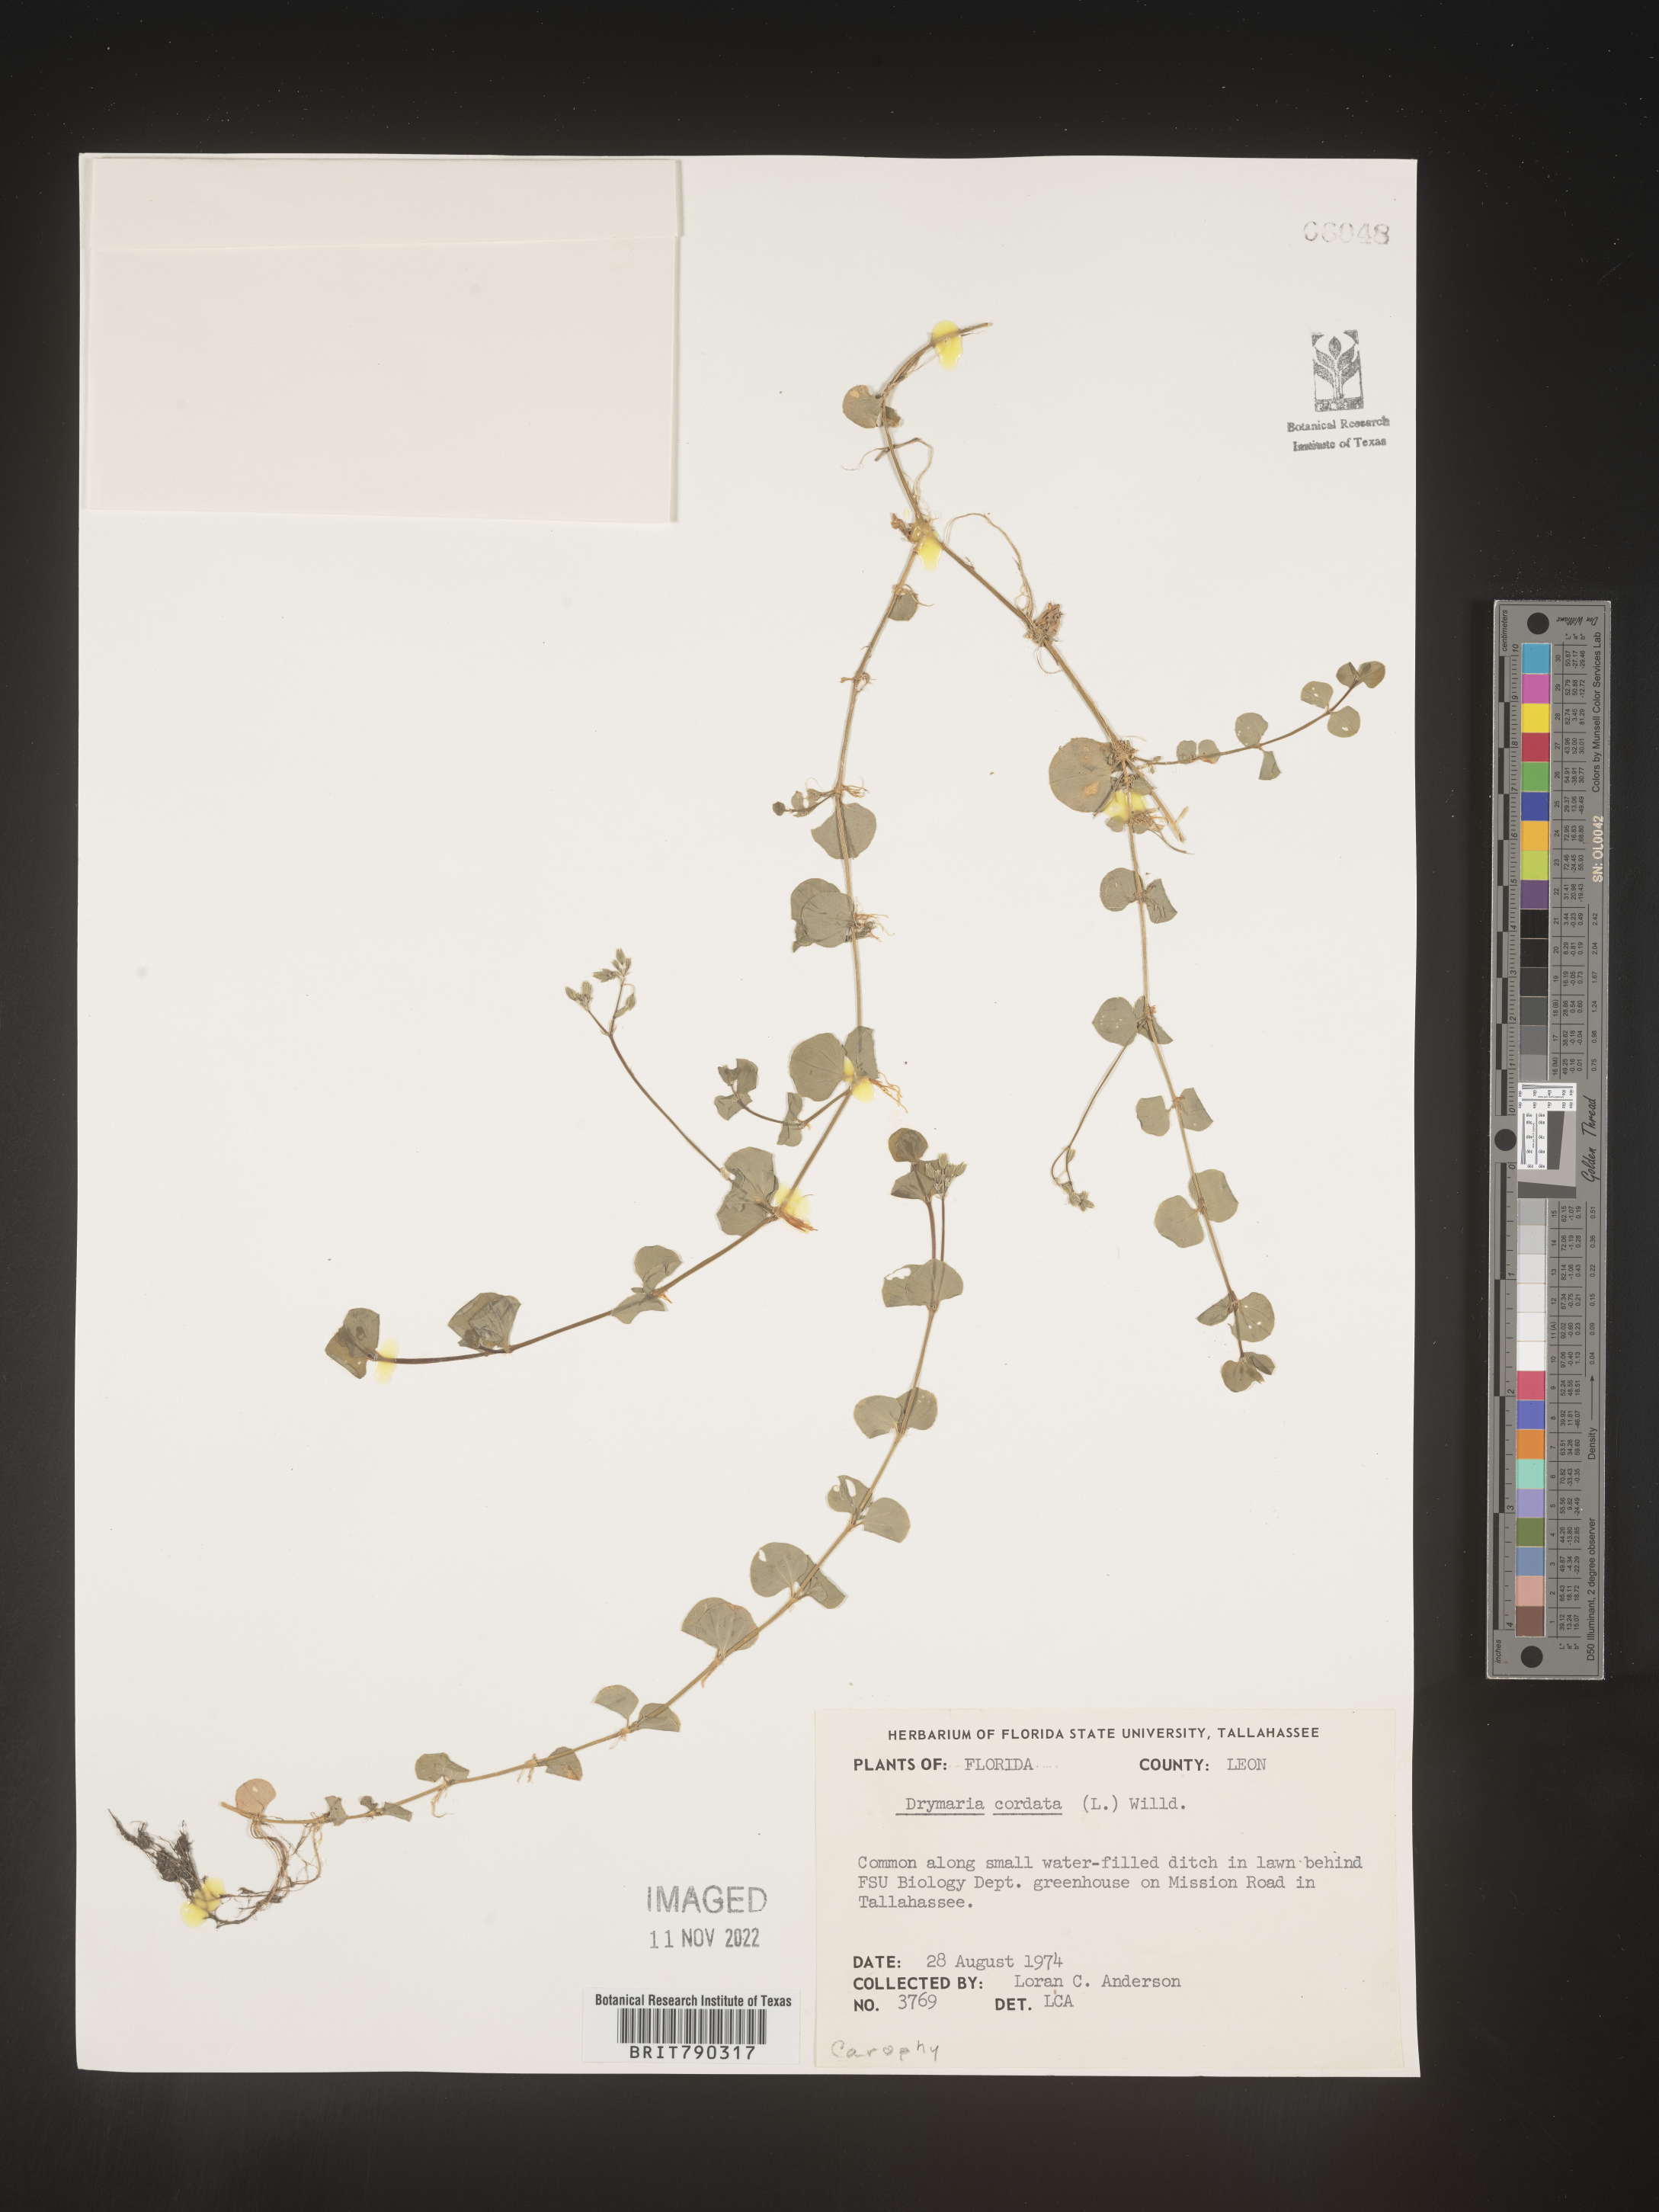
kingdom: Plantae
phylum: Tracheophyta
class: Magnoliopsida
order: Caryophyllales
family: Caryophyllaceae
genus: Drymaria
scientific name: Drymaria
